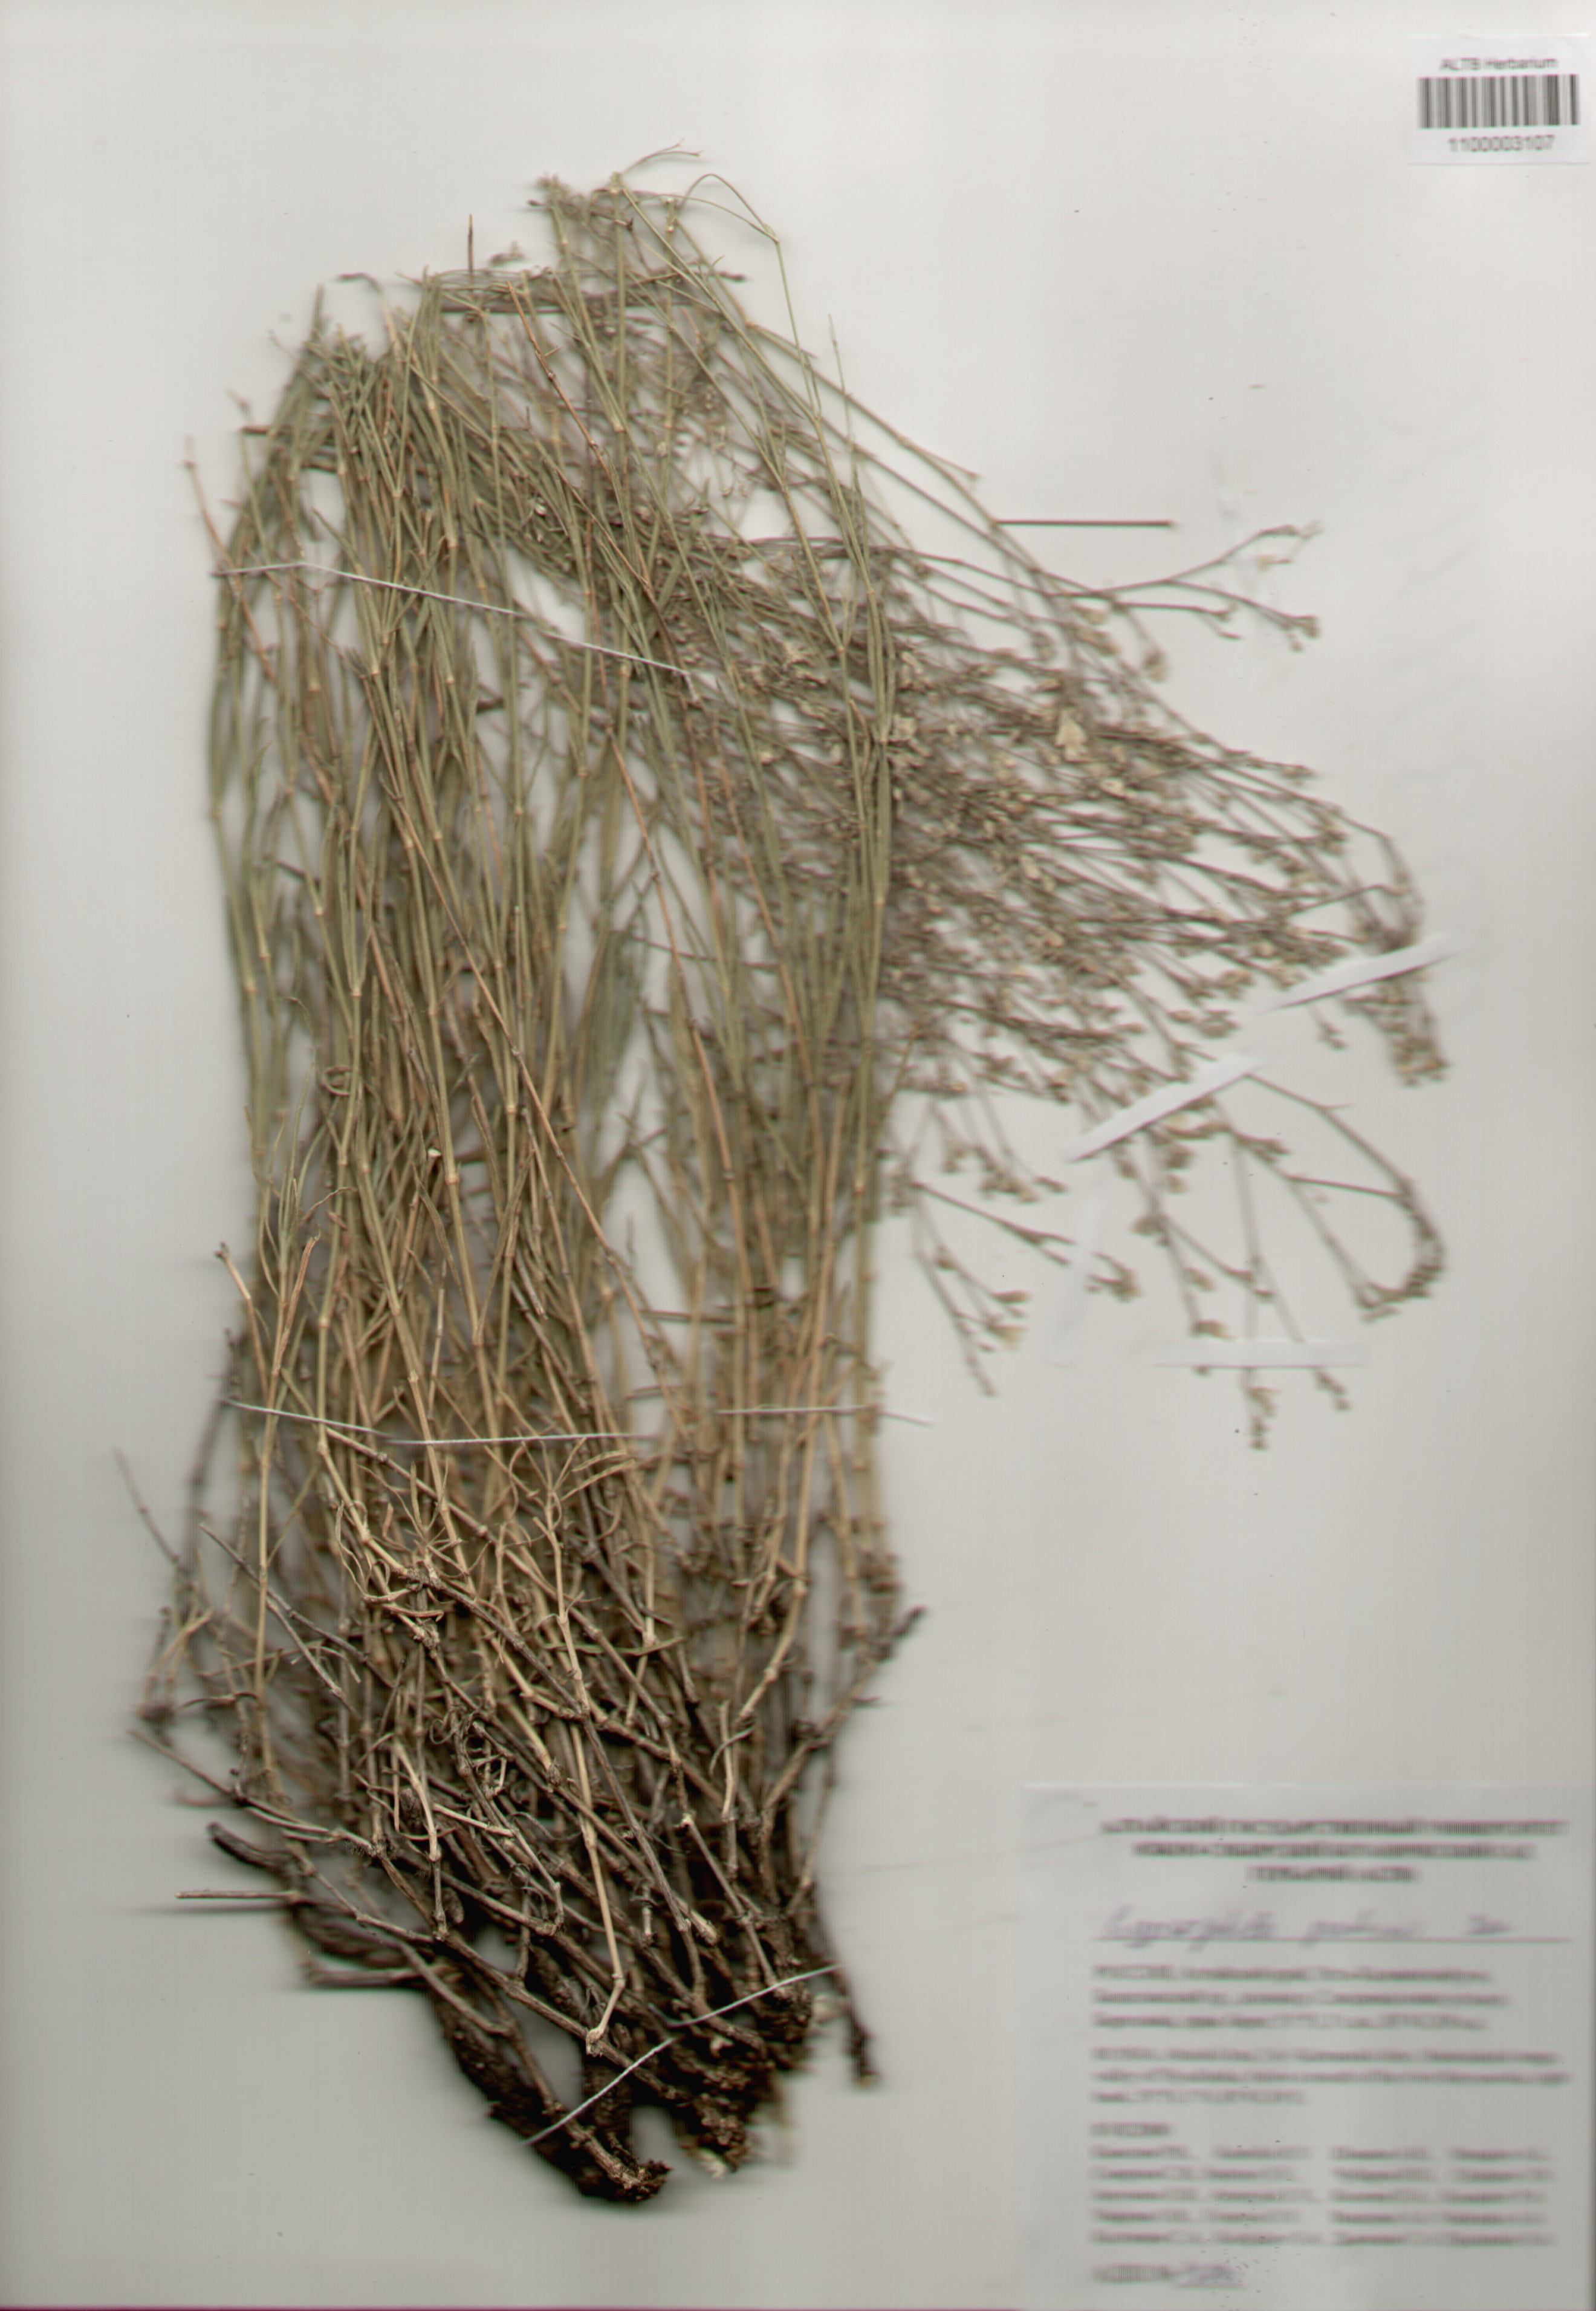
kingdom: Plantae
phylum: Tracheophyta
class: Magnoliopsida
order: Caryophyllales
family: Caryophyllaceae
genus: Gypsophila
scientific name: Gypsophila patrinii
